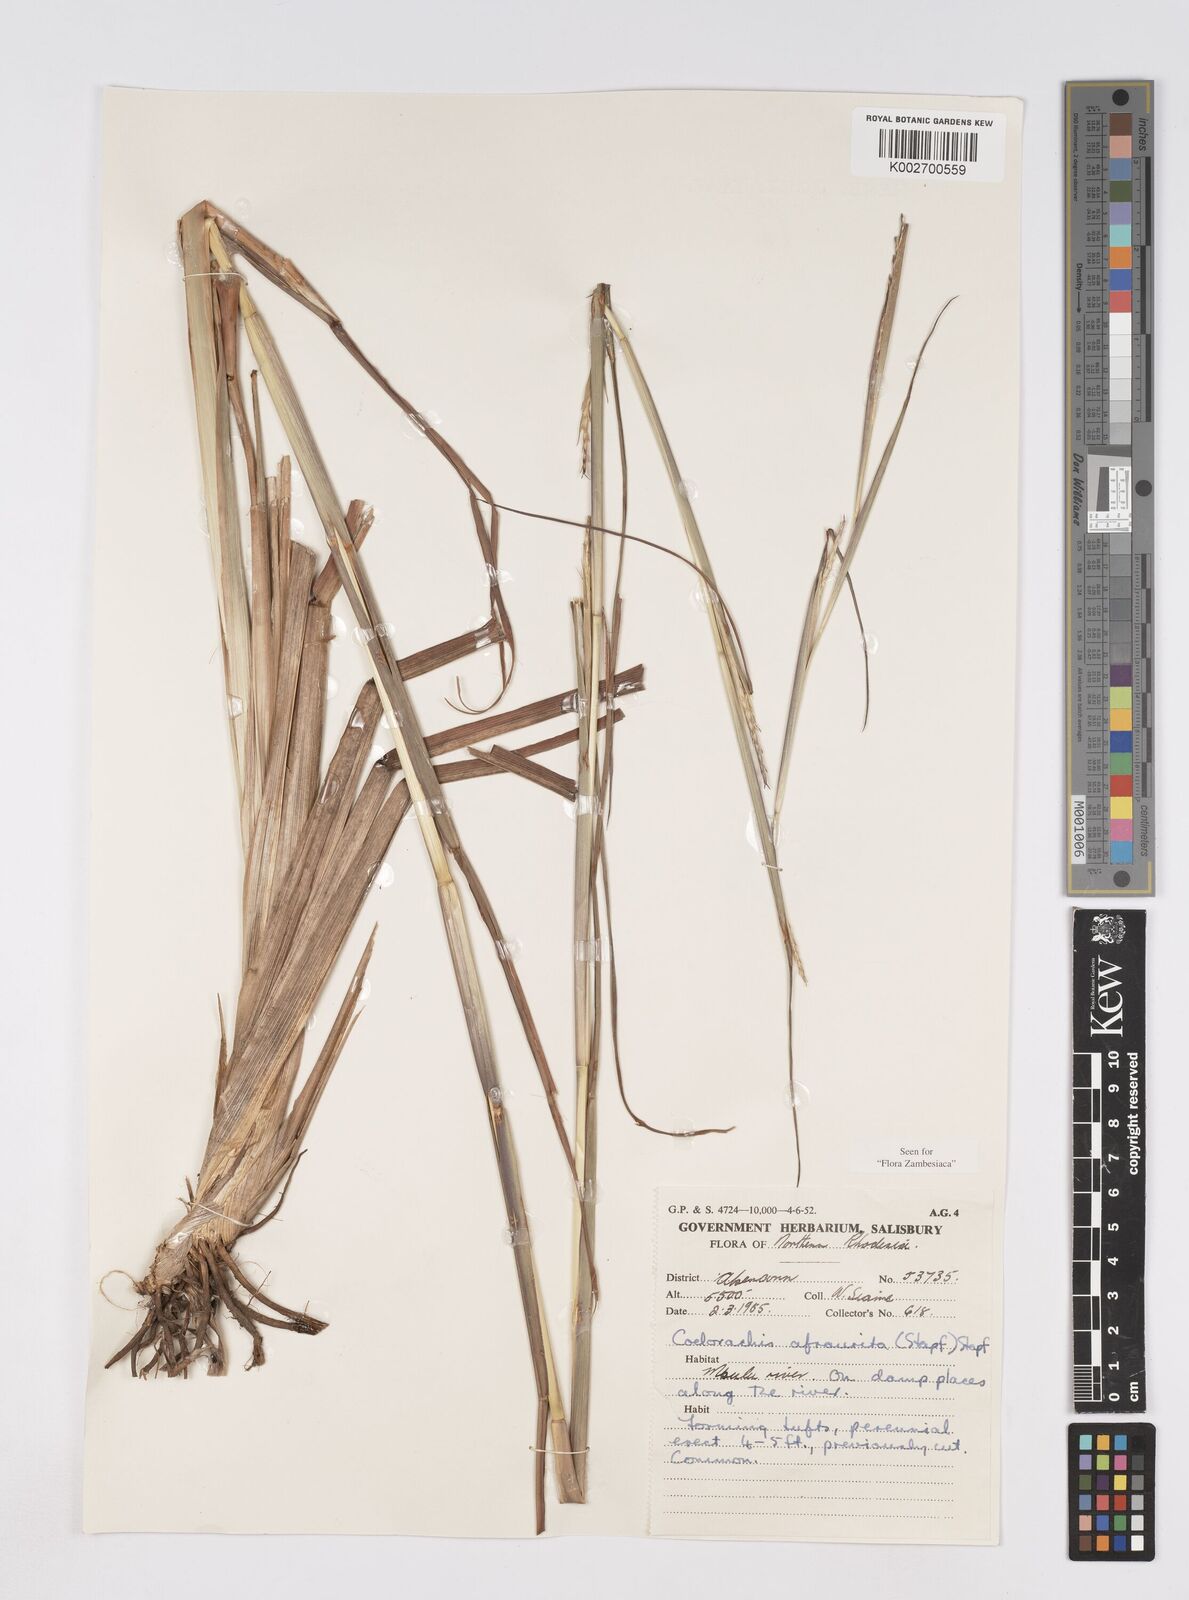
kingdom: Plantae
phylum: Tracheophyta
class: Liliopsida
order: Poales
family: Poaceae
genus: Rottboellia
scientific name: Rottboellia afraurita
